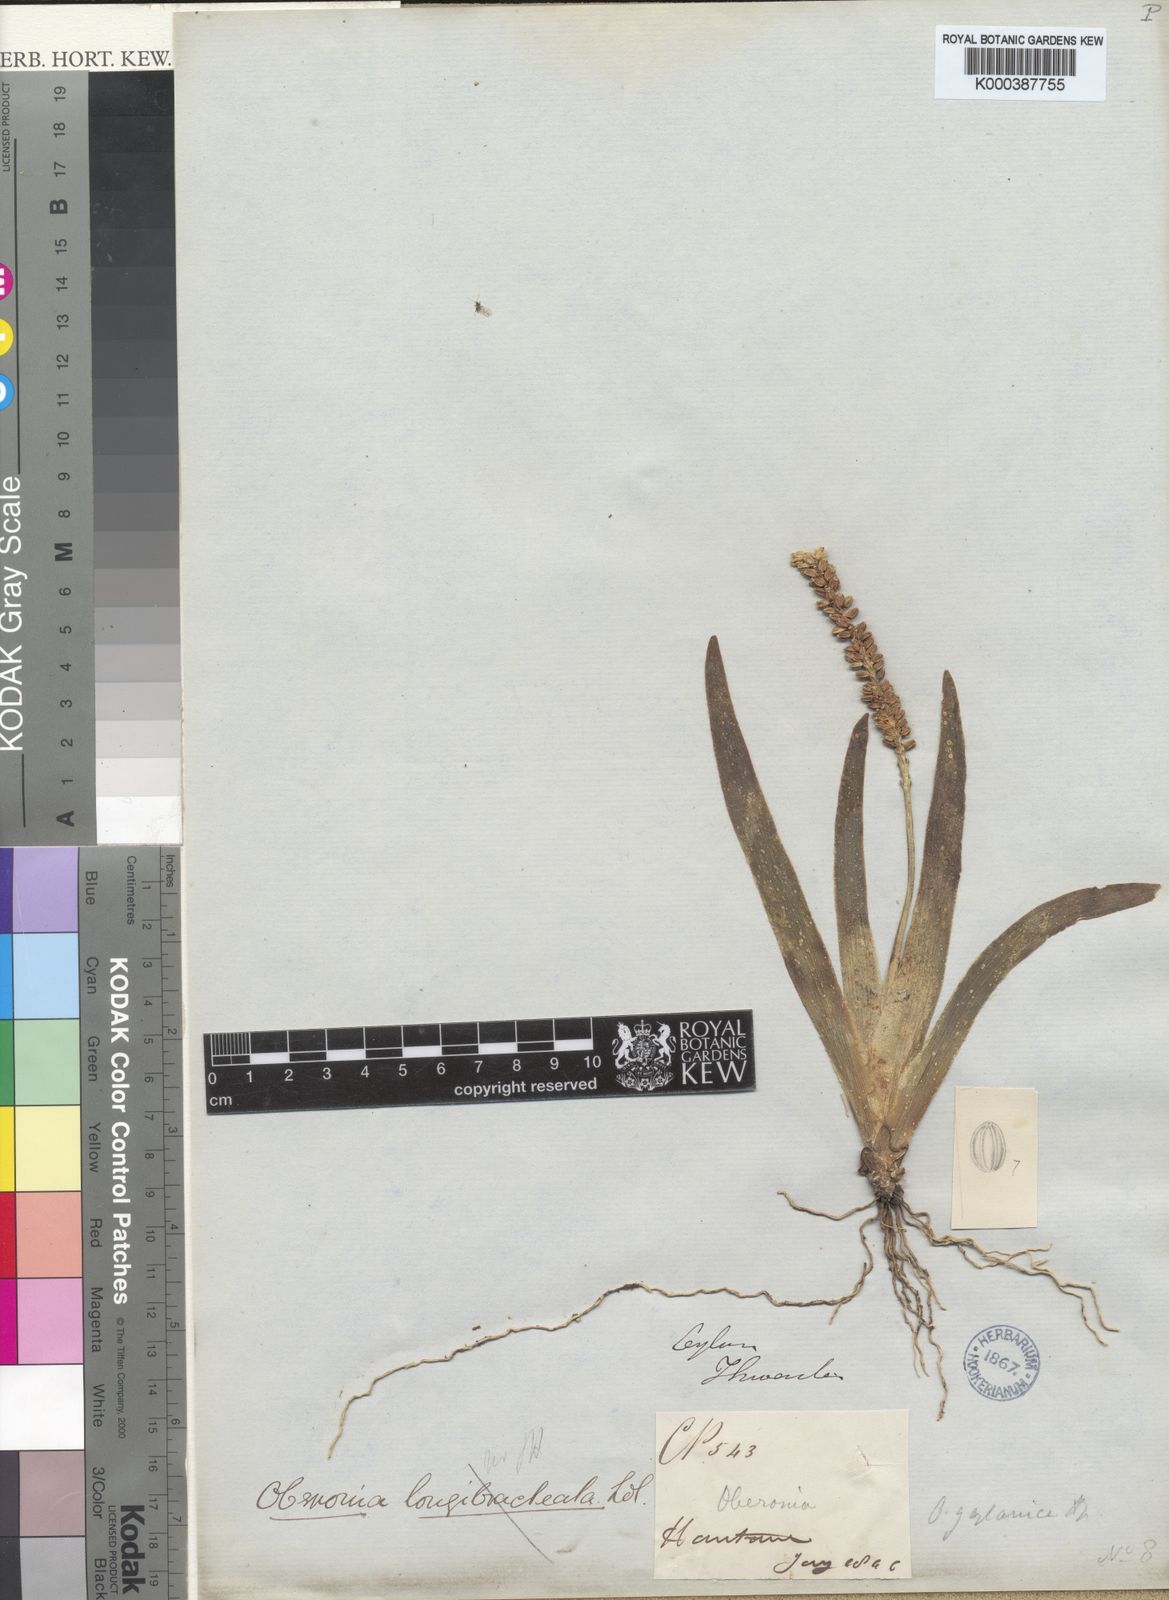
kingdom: Plantae
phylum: Tracheophyta
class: Liliopsida
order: Asparagales
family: Orchidaceae
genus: Oberonia
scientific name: Oberonia zeylanica
